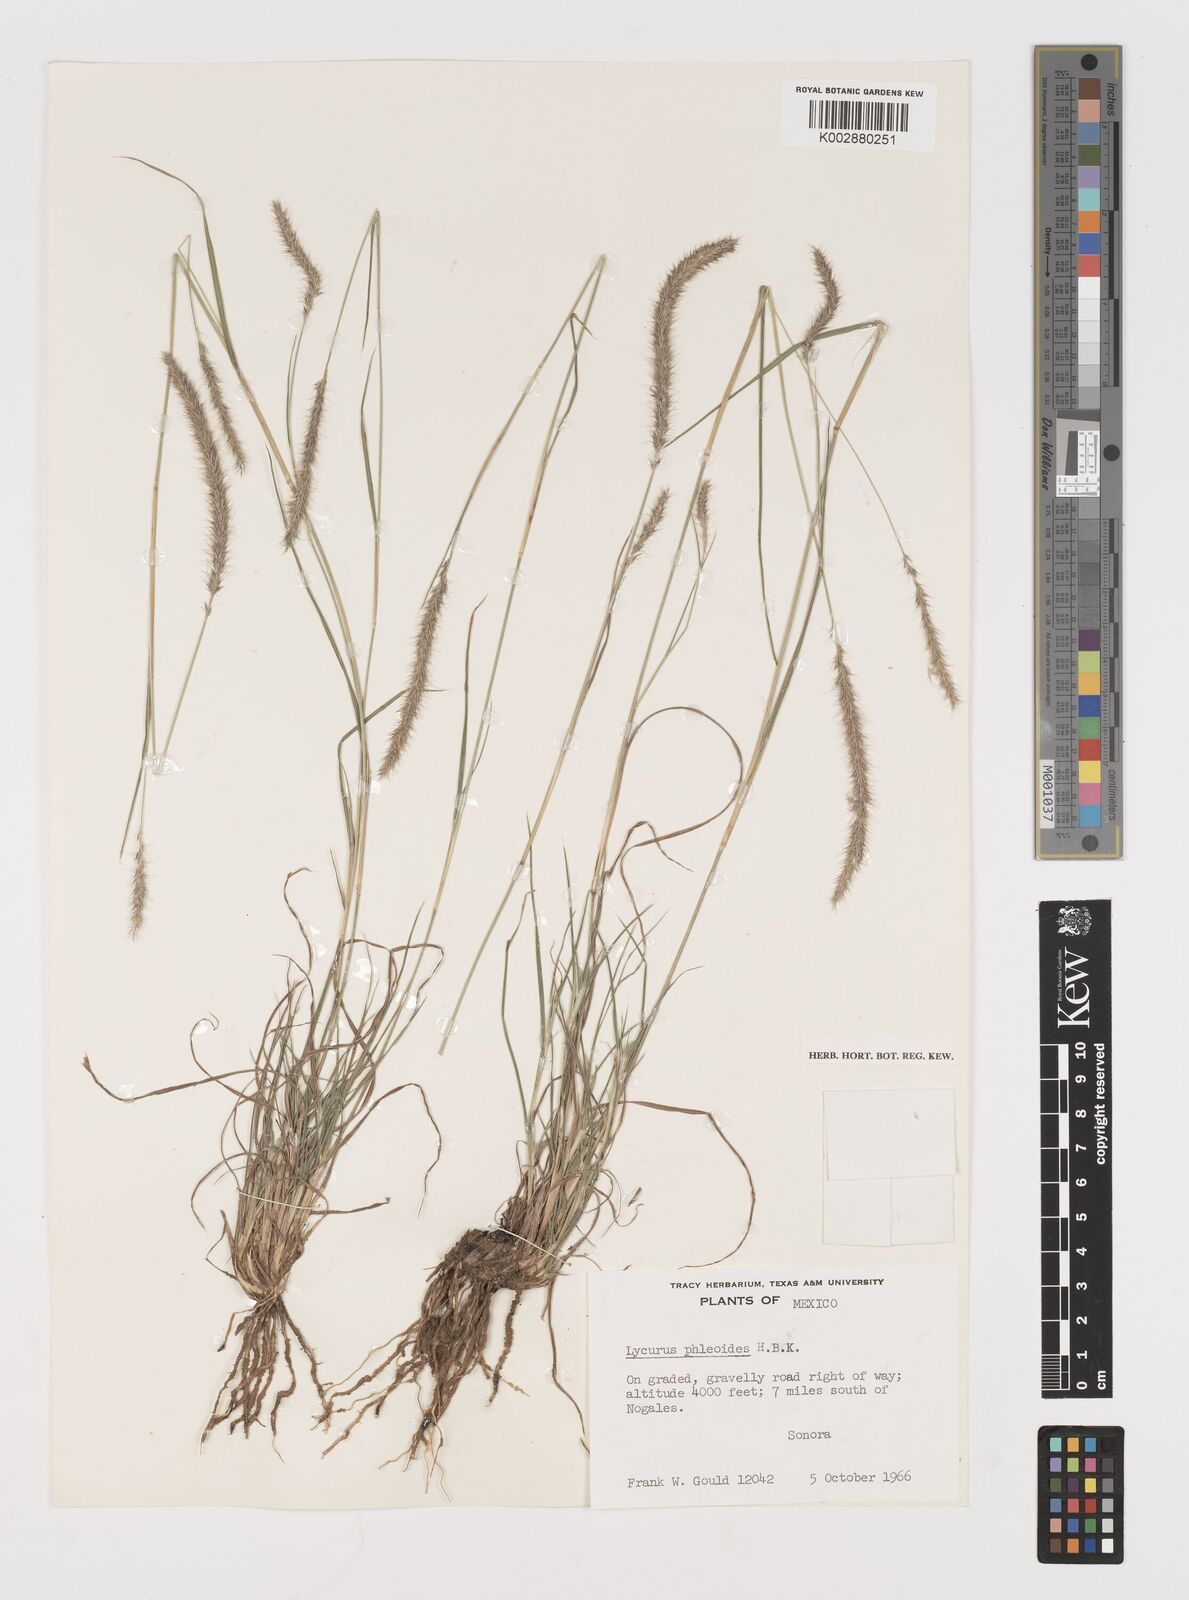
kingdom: Plantae
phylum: Tracheophyta
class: Liliopsida
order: Poales
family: Poaceae
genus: Muhlenbergia
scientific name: Muhlenbergia alopecuroides
